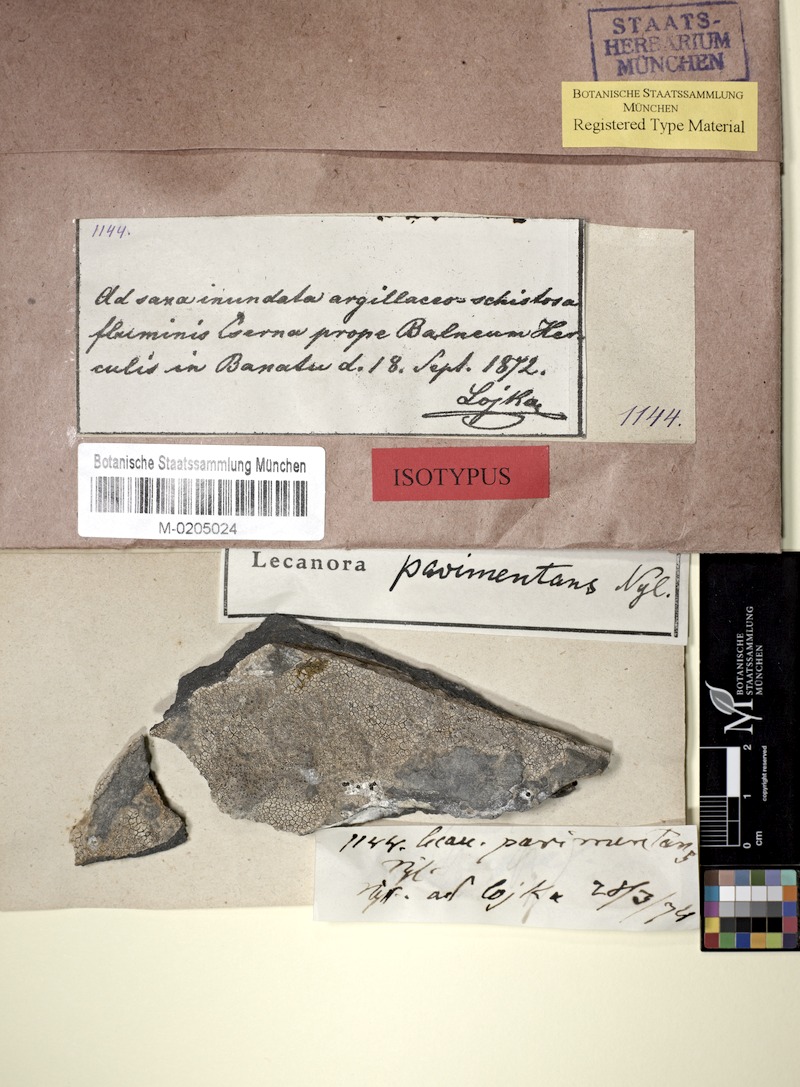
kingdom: Fungi
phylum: Ascomycota
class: Lecanoromycetes
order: Pertusariales
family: Megasporaceae
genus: Aspicilia
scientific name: Aspicilia
